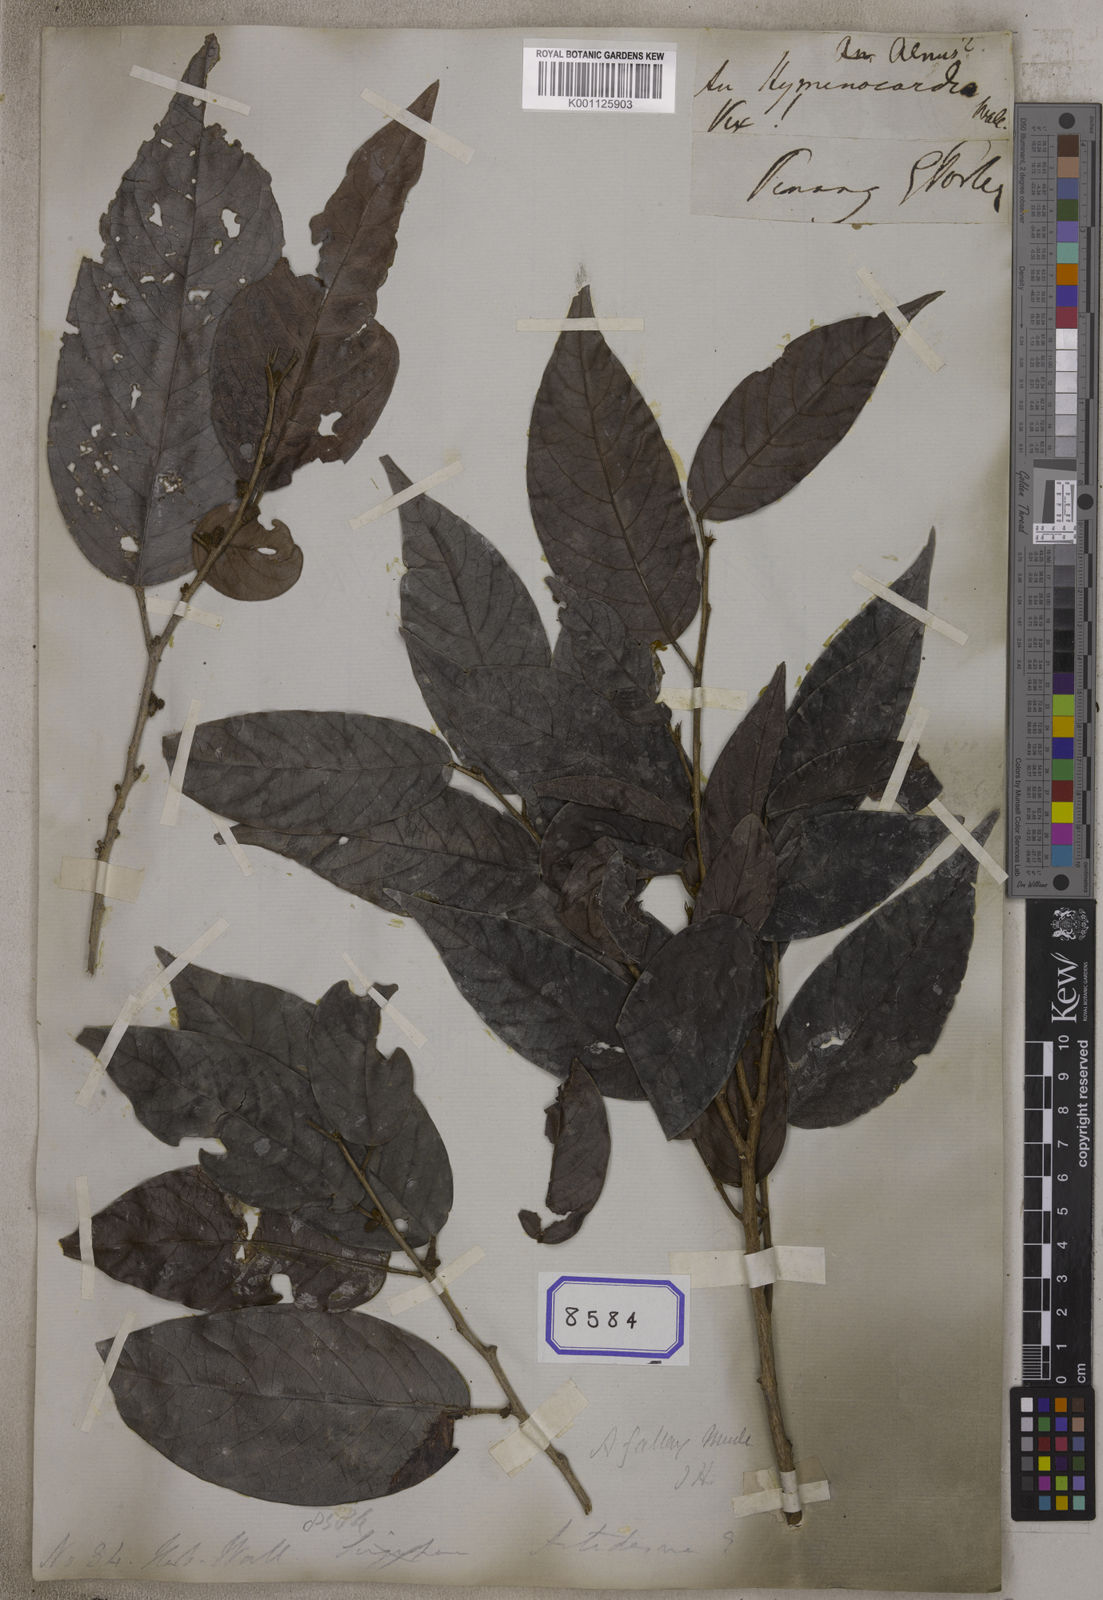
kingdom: Plantae
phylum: Tracheophyta
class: Magnoliopsida
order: Malpighiales
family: Phyllanthaceae
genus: Antidesma
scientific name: Antidesma
